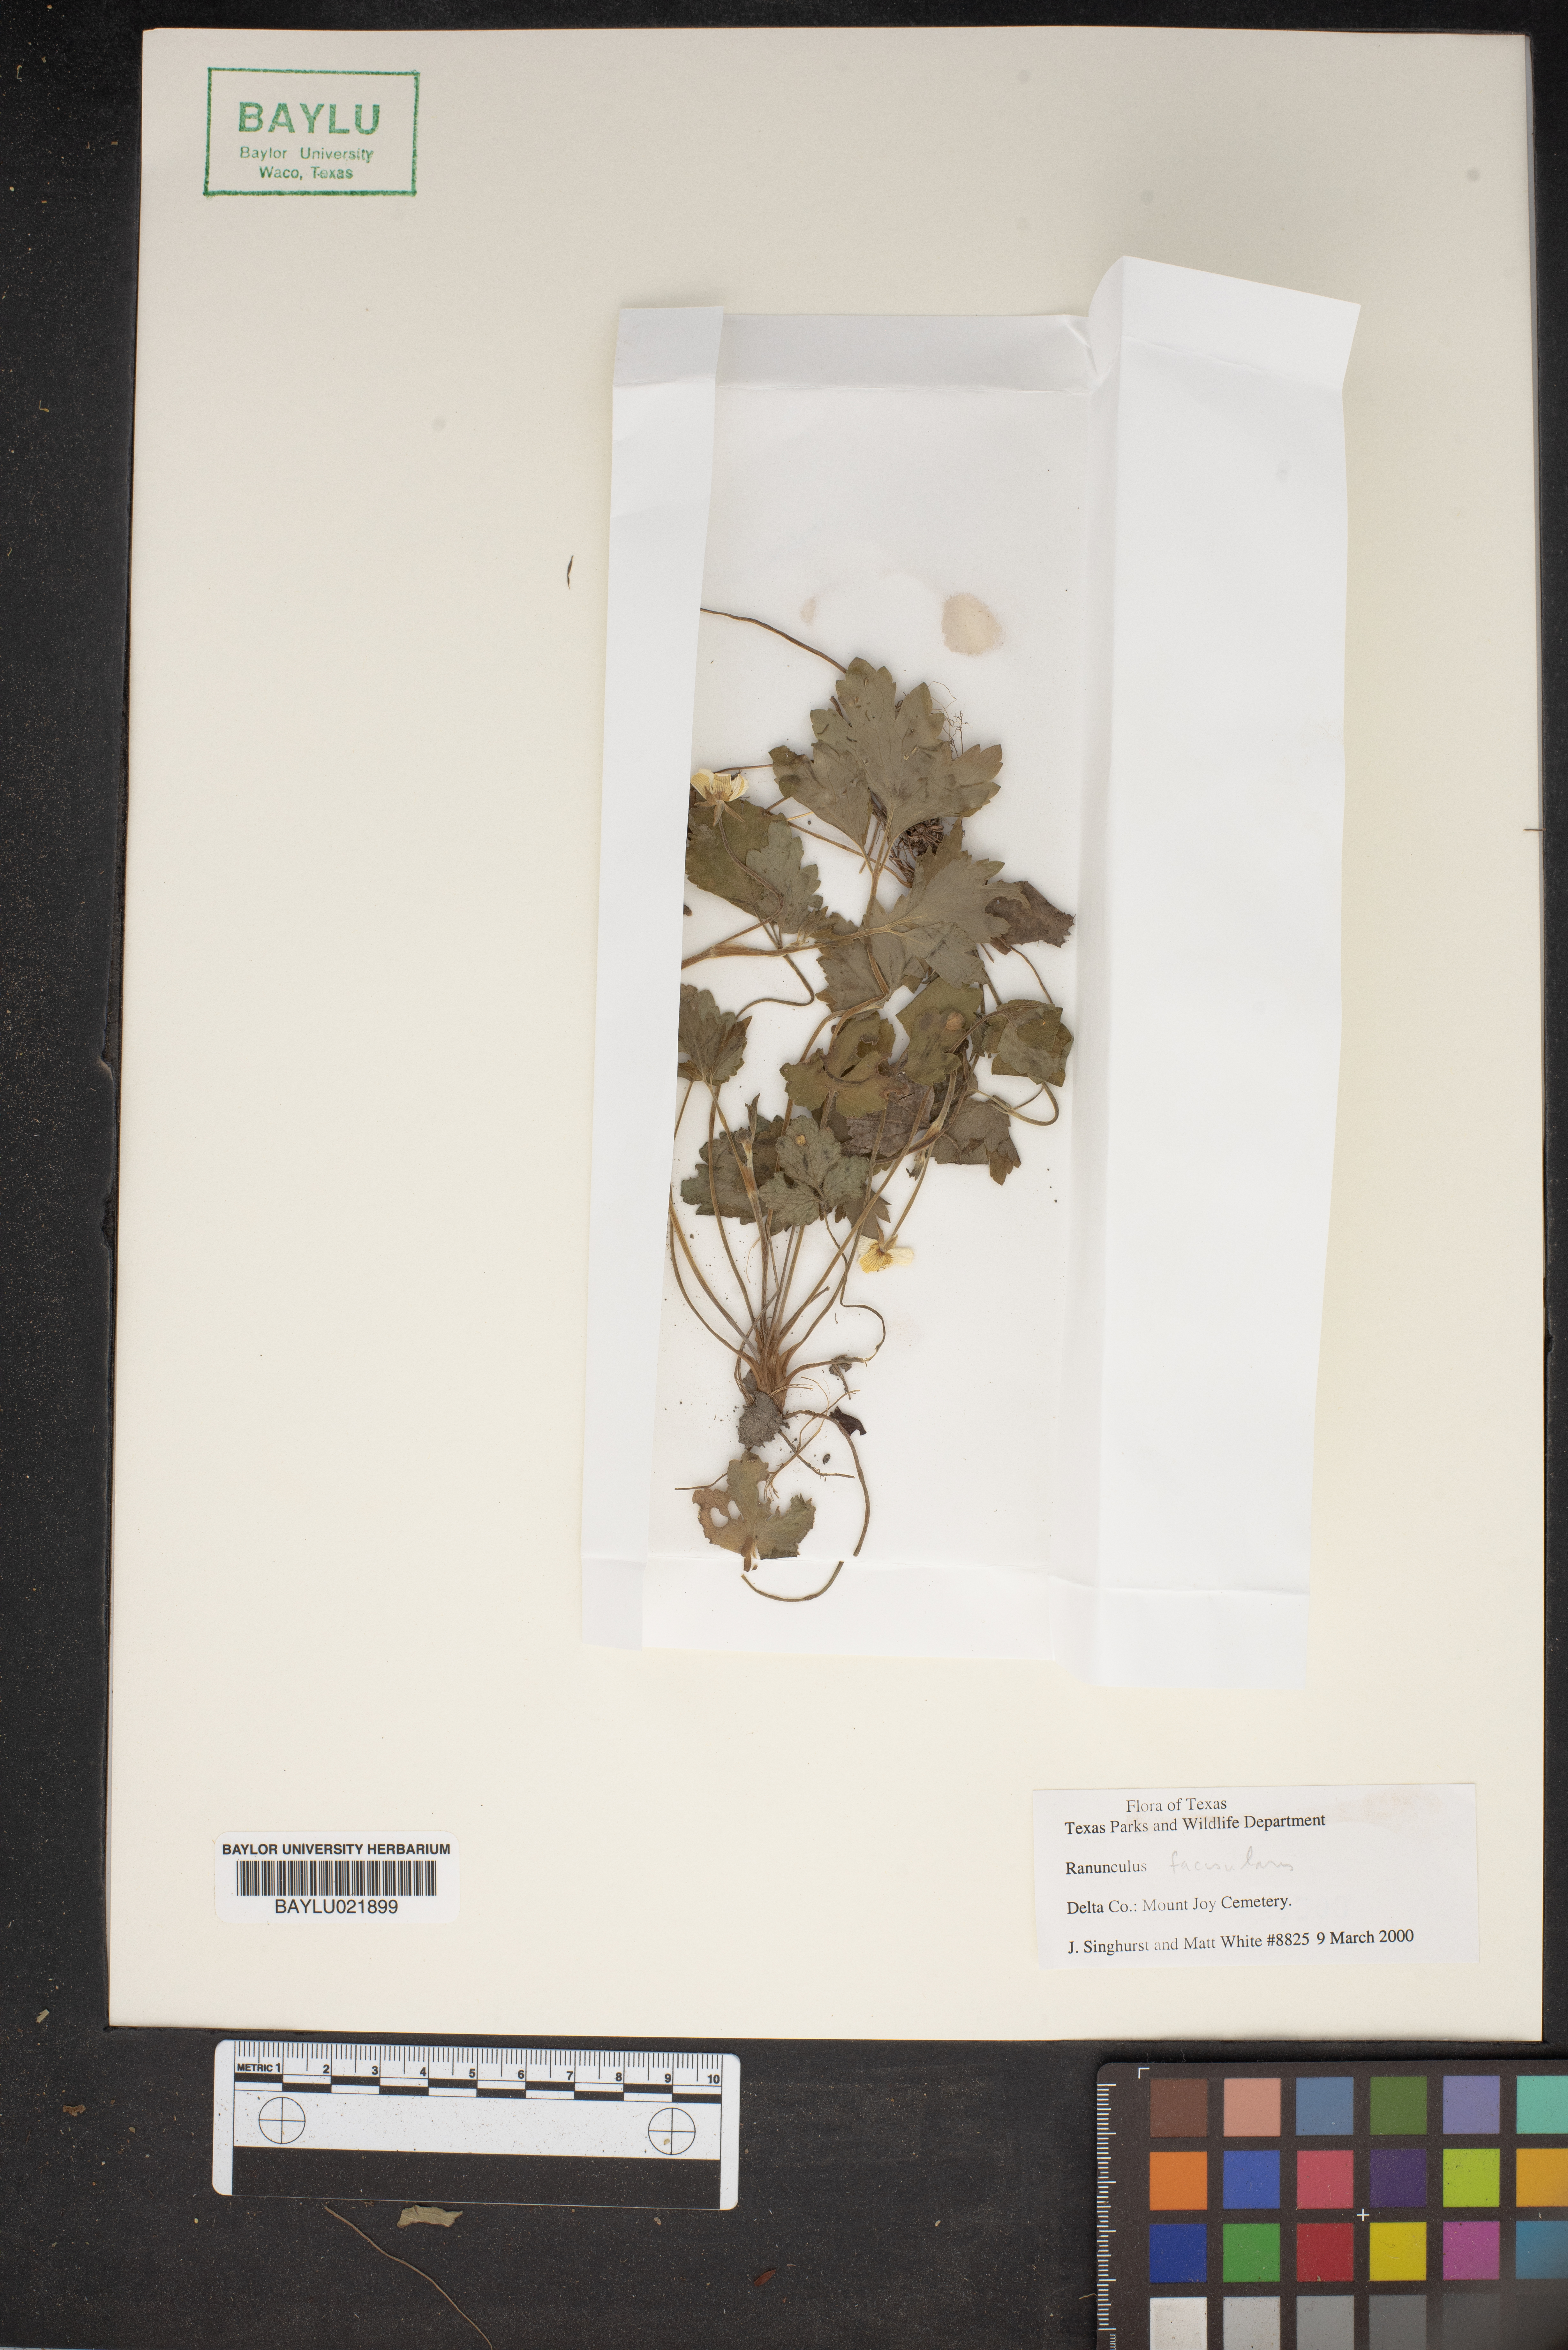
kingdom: Plantae
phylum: Tracheophyta
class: Magnoliopsida
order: Ranunculales
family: Ranunculaceae
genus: Ranunculus
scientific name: Ranunculus fascicularis
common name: Early buttercup
